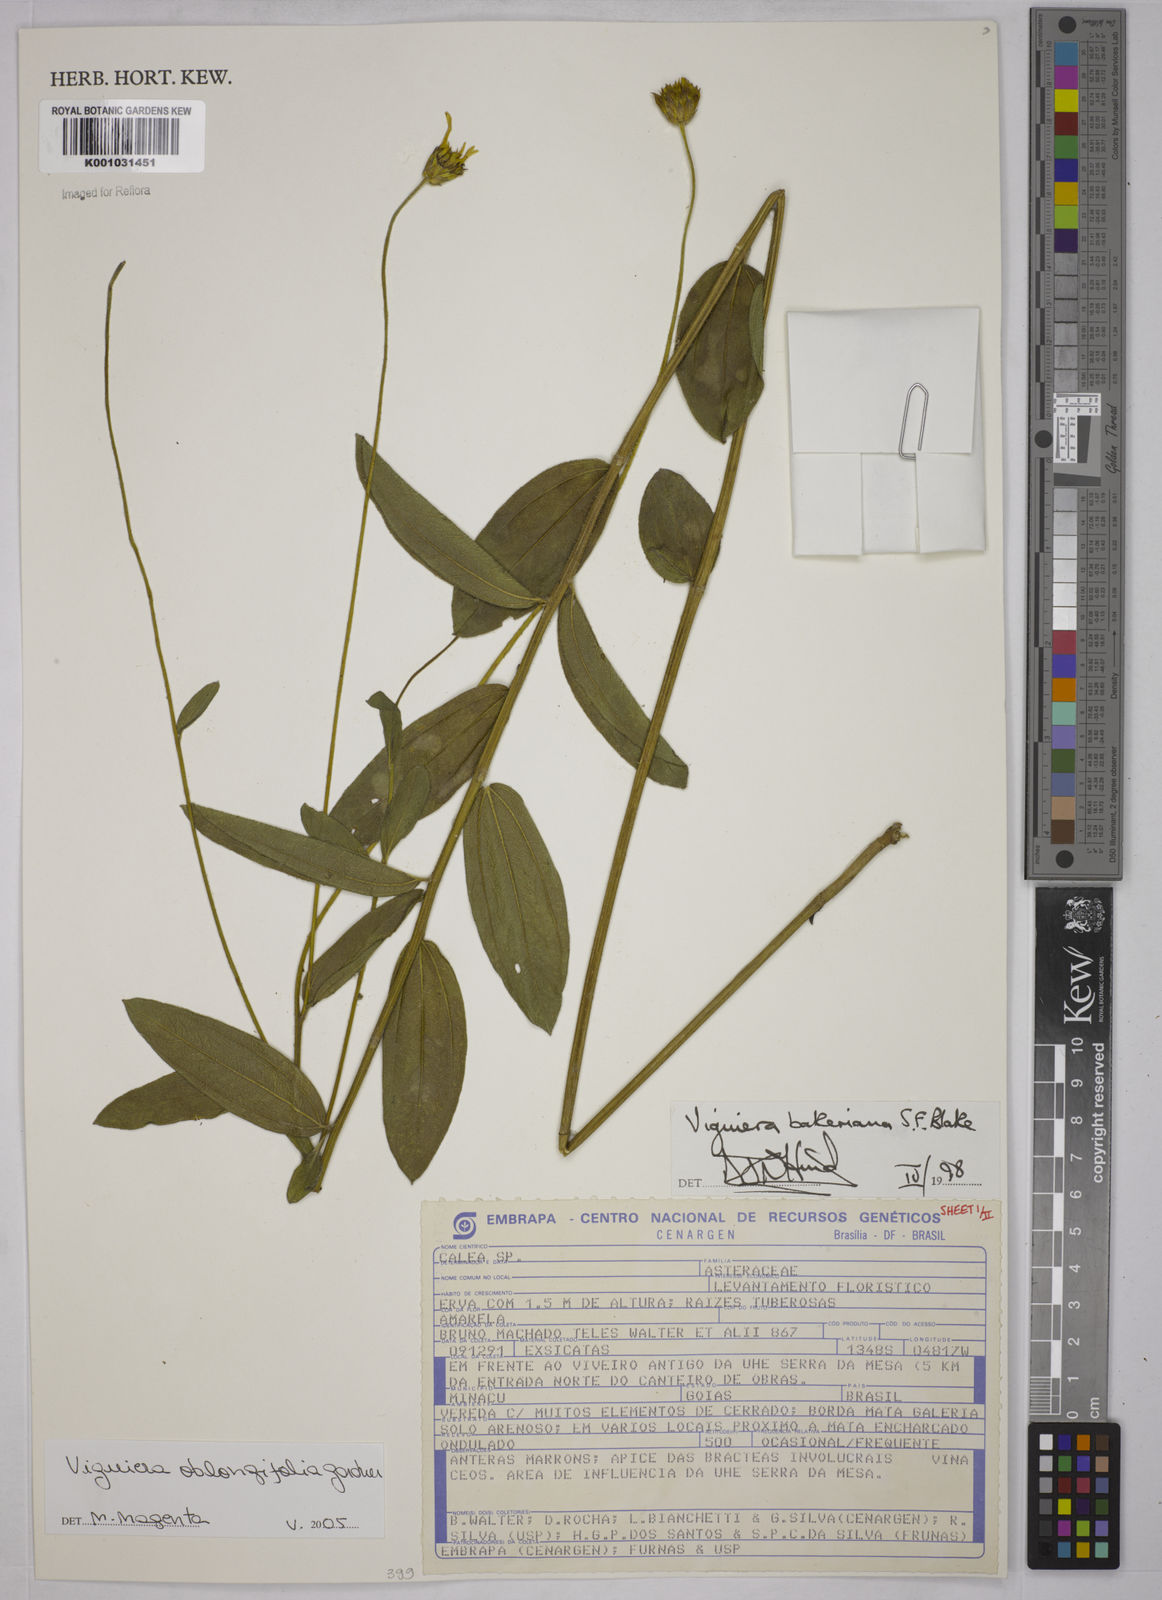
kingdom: Plantae
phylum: Tracheophyta
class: Magnoliopsida
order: Asterales
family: Asteraceae
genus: Aldama
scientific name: Aldama oblongifolia
